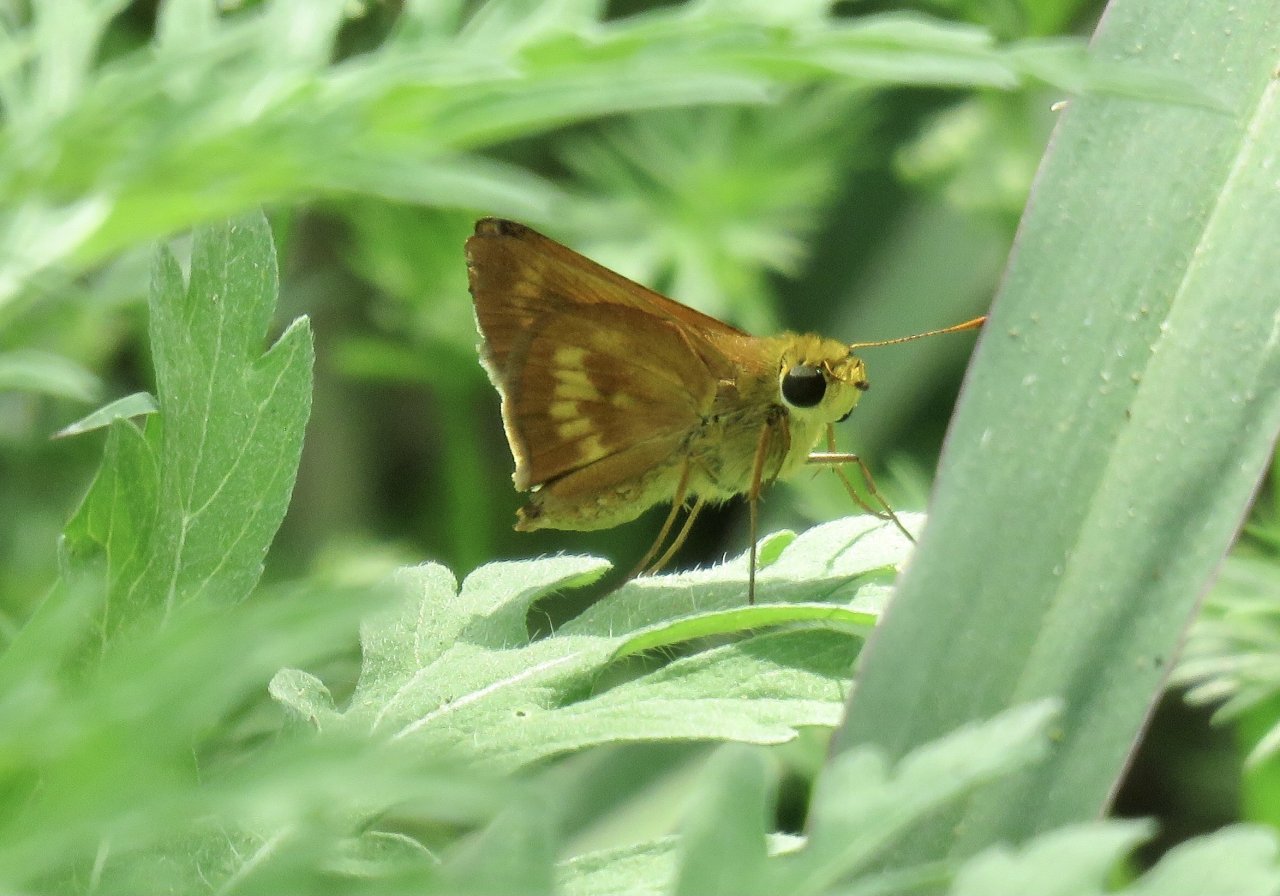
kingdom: Animalia
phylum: Arthropoda
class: Insecta
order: Lepidoptera
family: Hesperiidae
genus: Wallengrenia
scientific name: Wallengrenia otho
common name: Southern Broken-Dash
